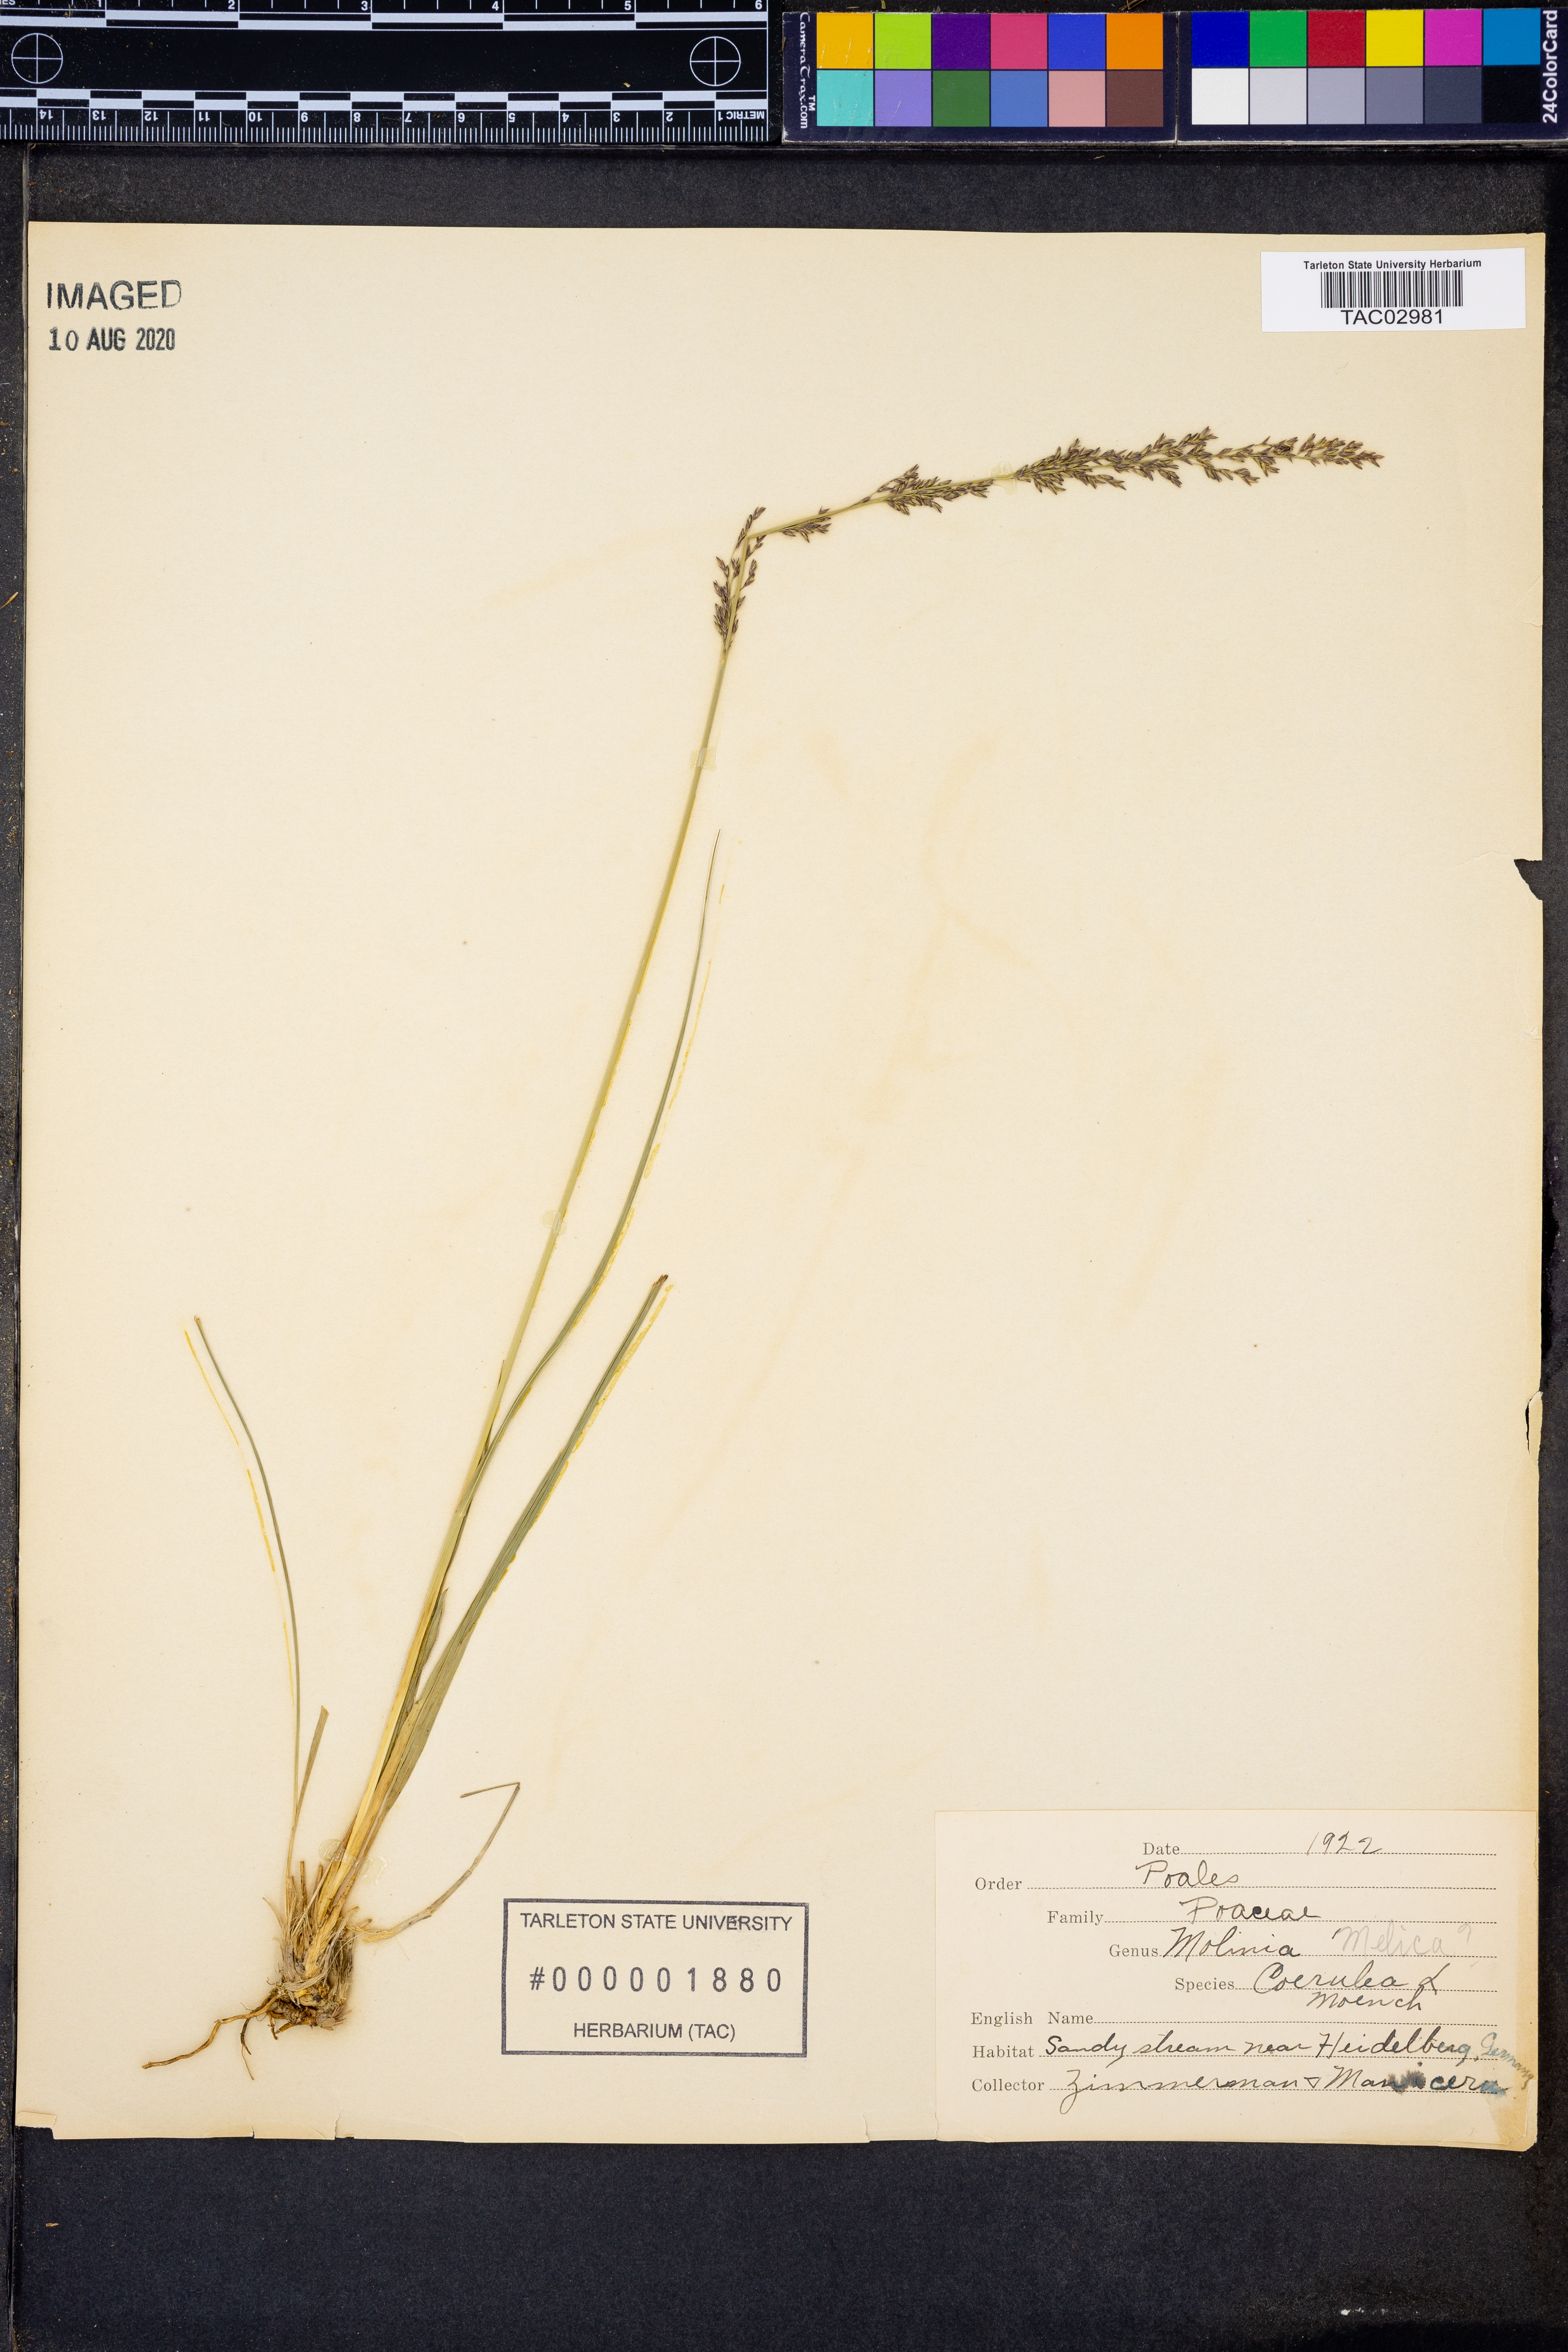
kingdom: Plantae
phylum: Tracheophyta
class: Liliopsida
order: Poales
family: Poaceae
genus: Molinia
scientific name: Molinia caerulea
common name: Purple moor-grass
